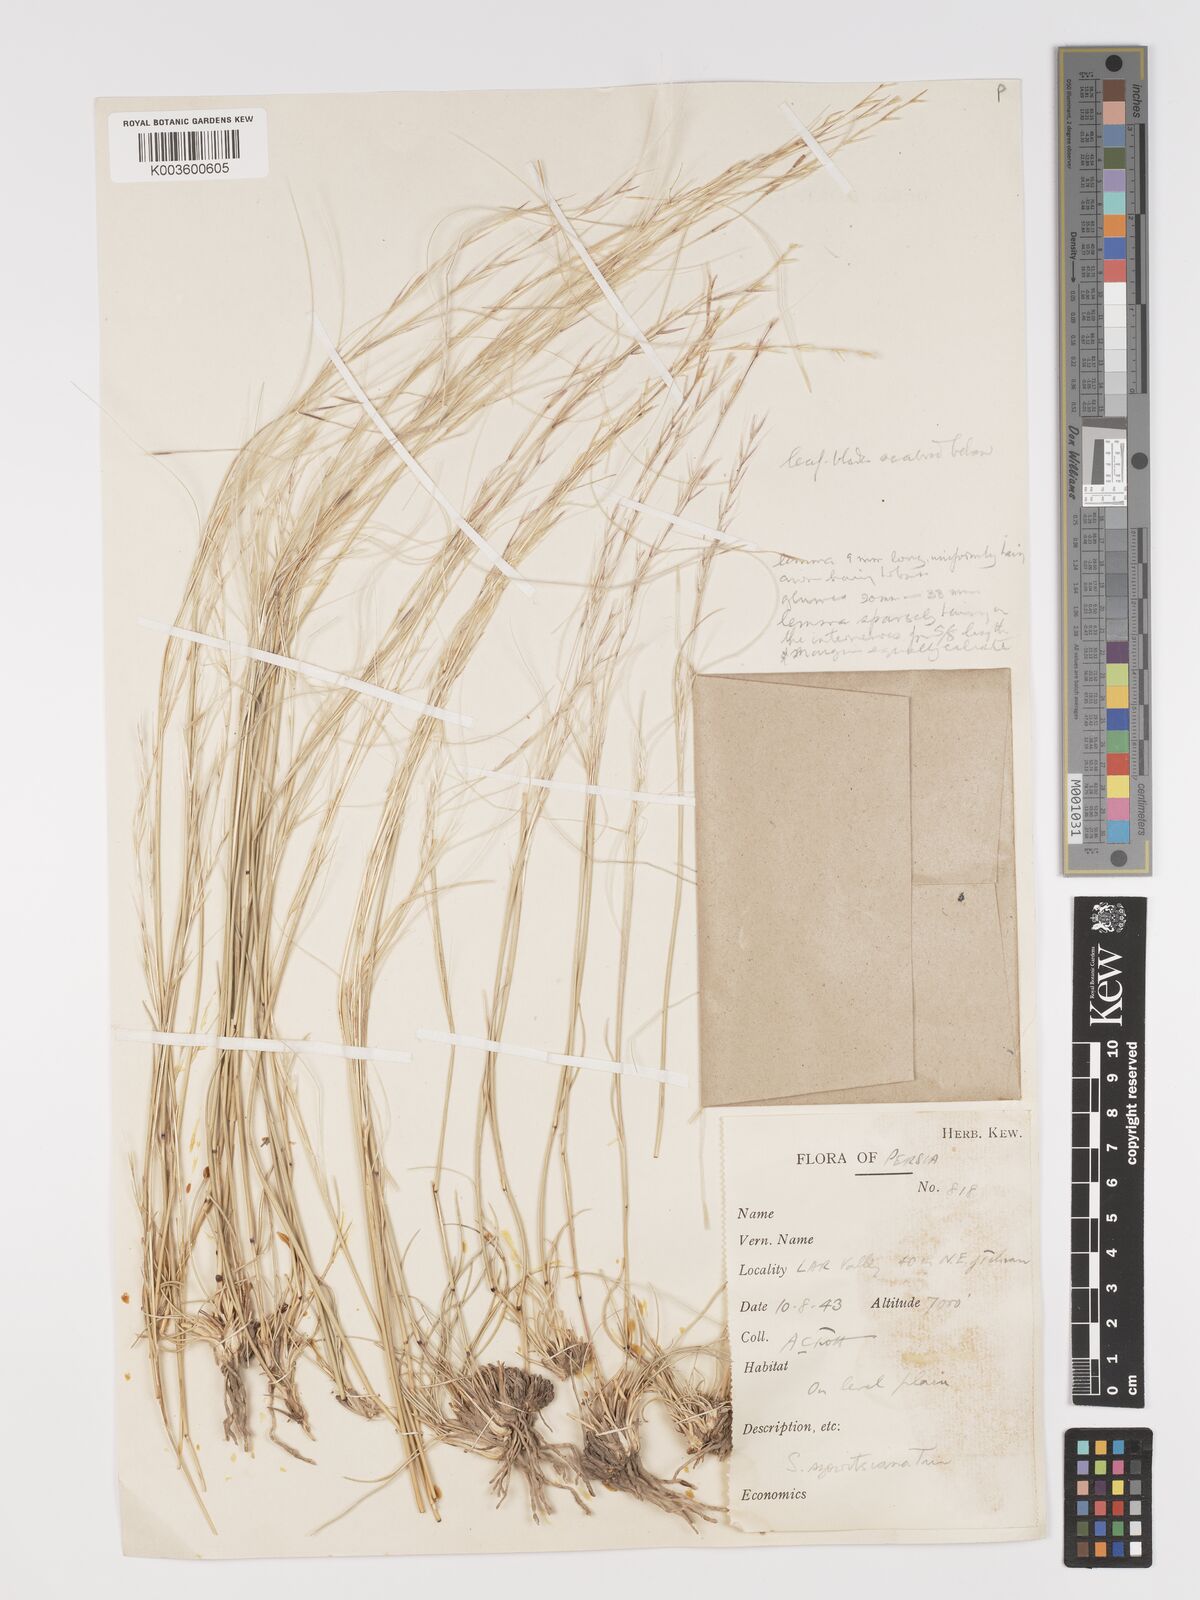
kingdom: Plantae
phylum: Tracheophyta
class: Liliopsida
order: Poales
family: Poaceae
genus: Stipa
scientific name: Stipa barbata
